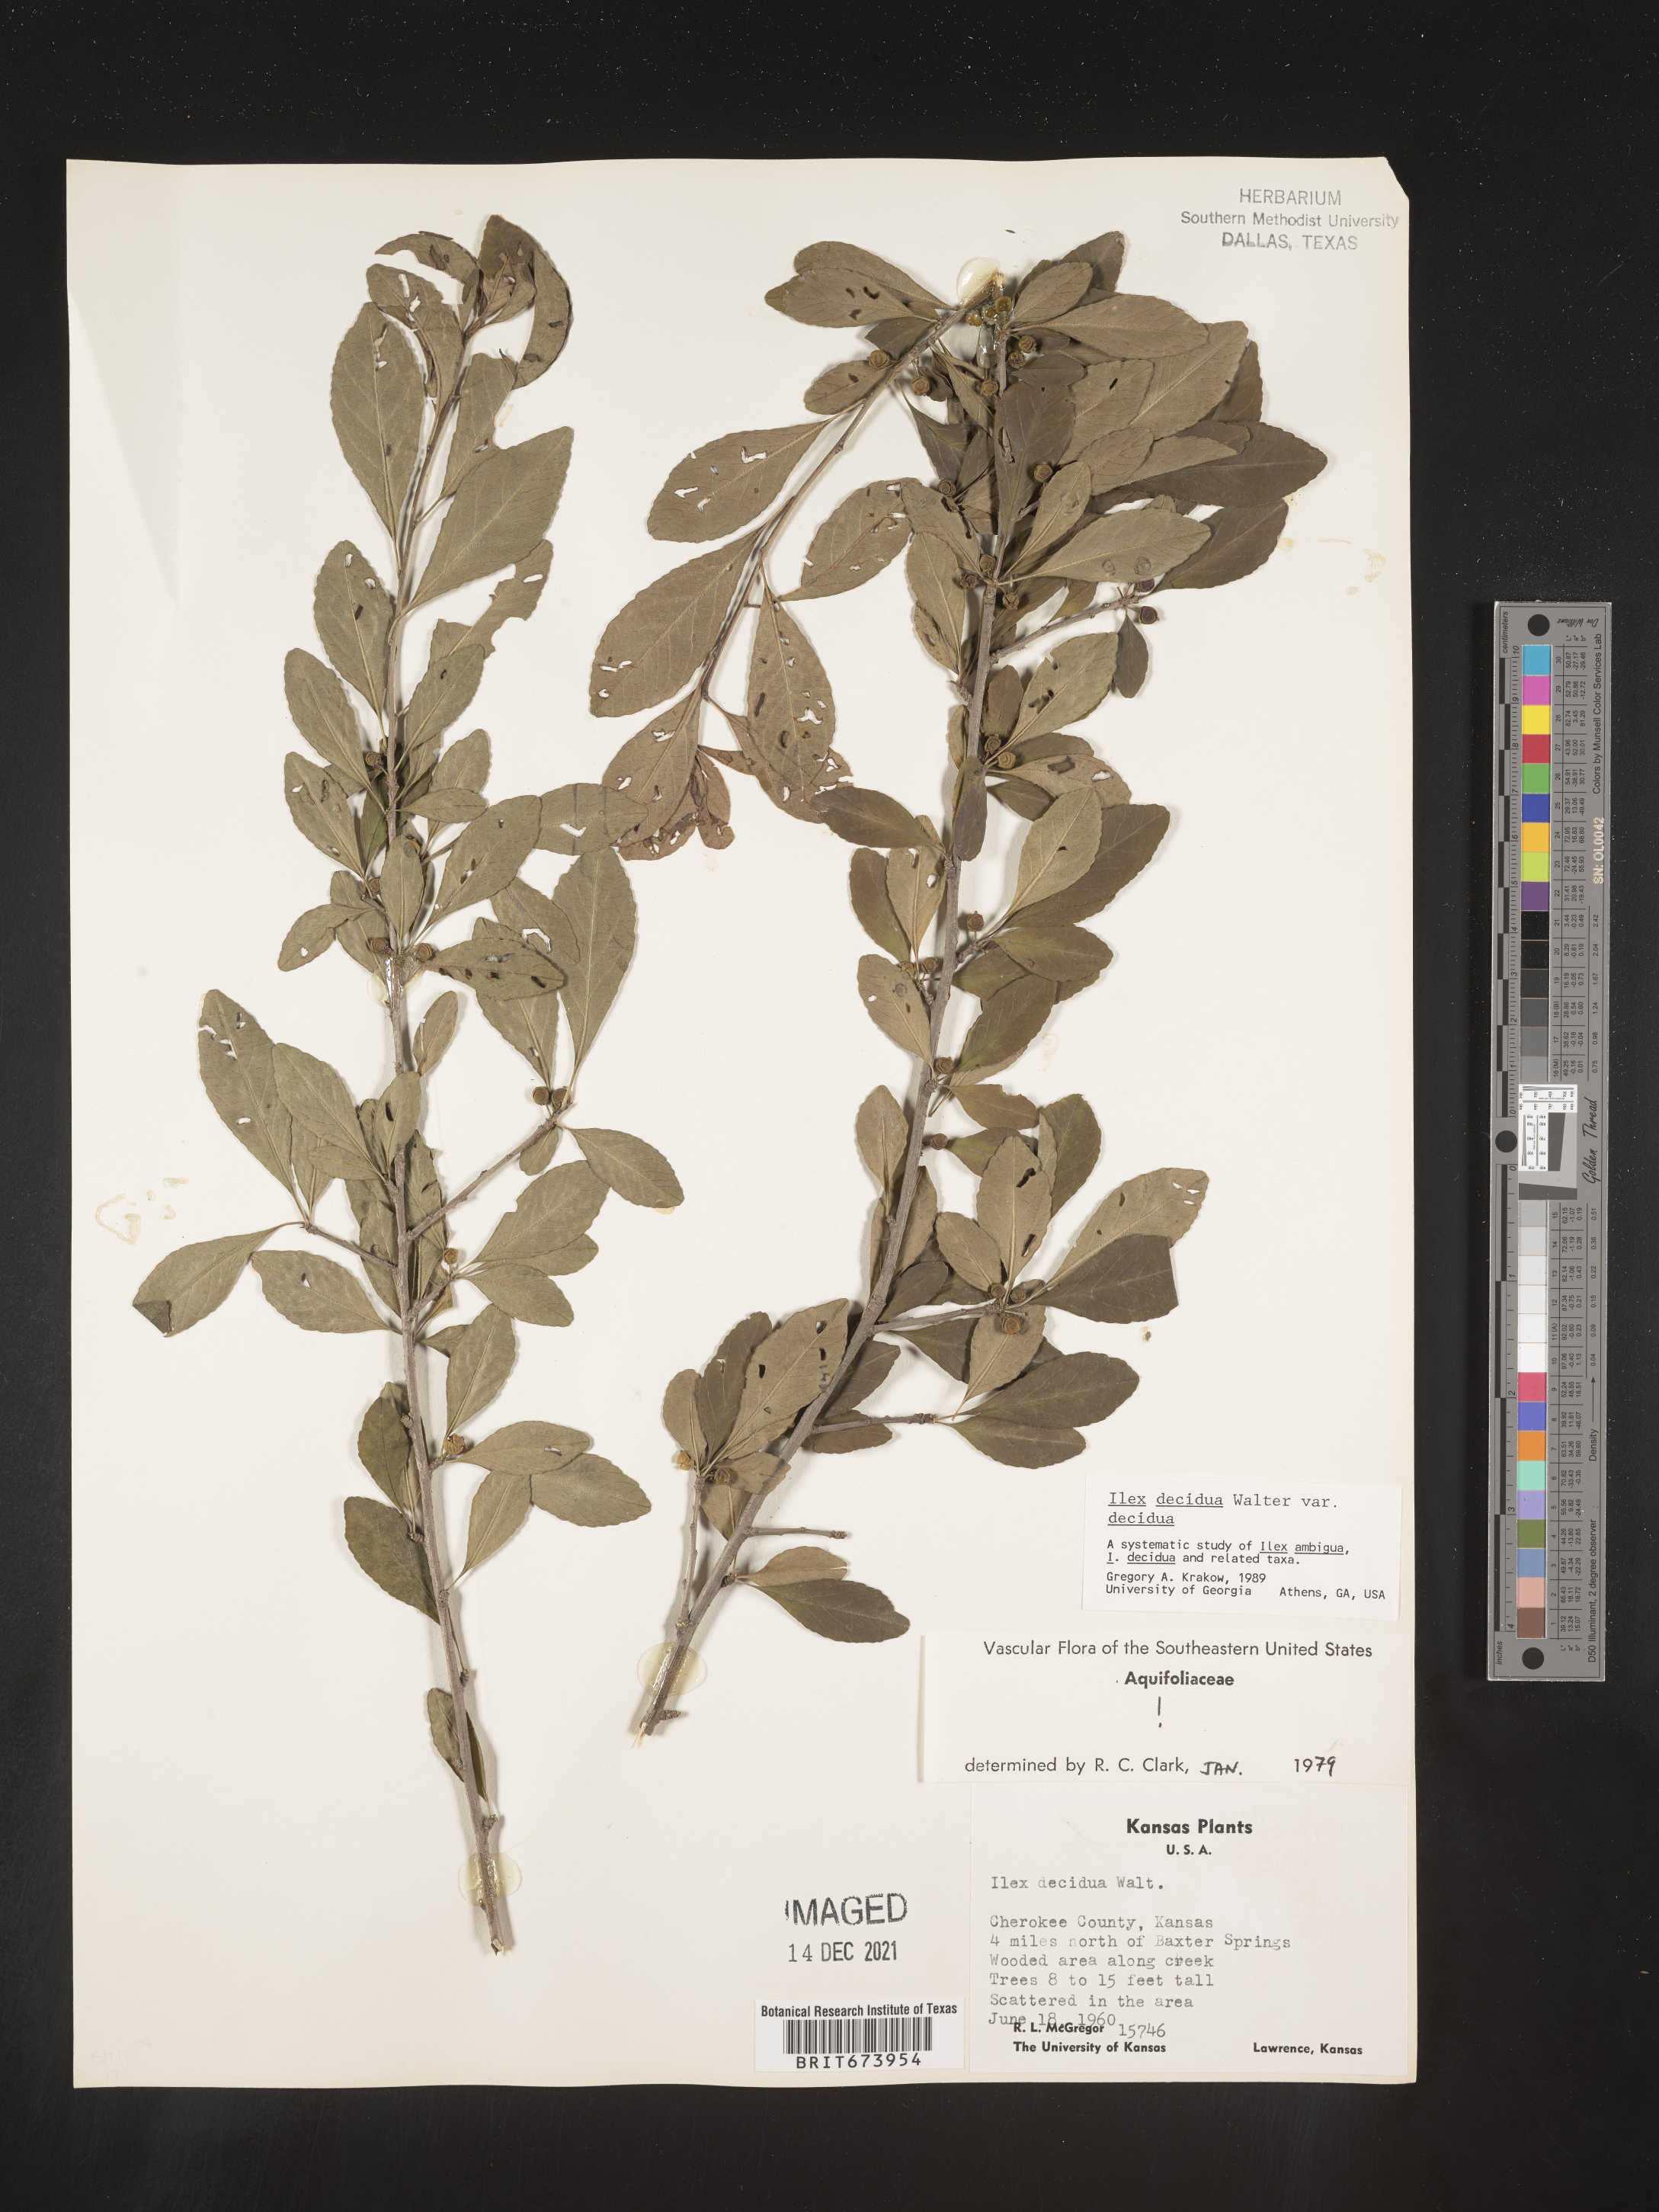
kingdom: Plantae
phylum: Tracheophyta
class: Magnoliopsida
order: Aquifoliales
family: Aquifoliaceae
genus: Ilex
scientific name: Ilex decidua
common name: Possum-haw
